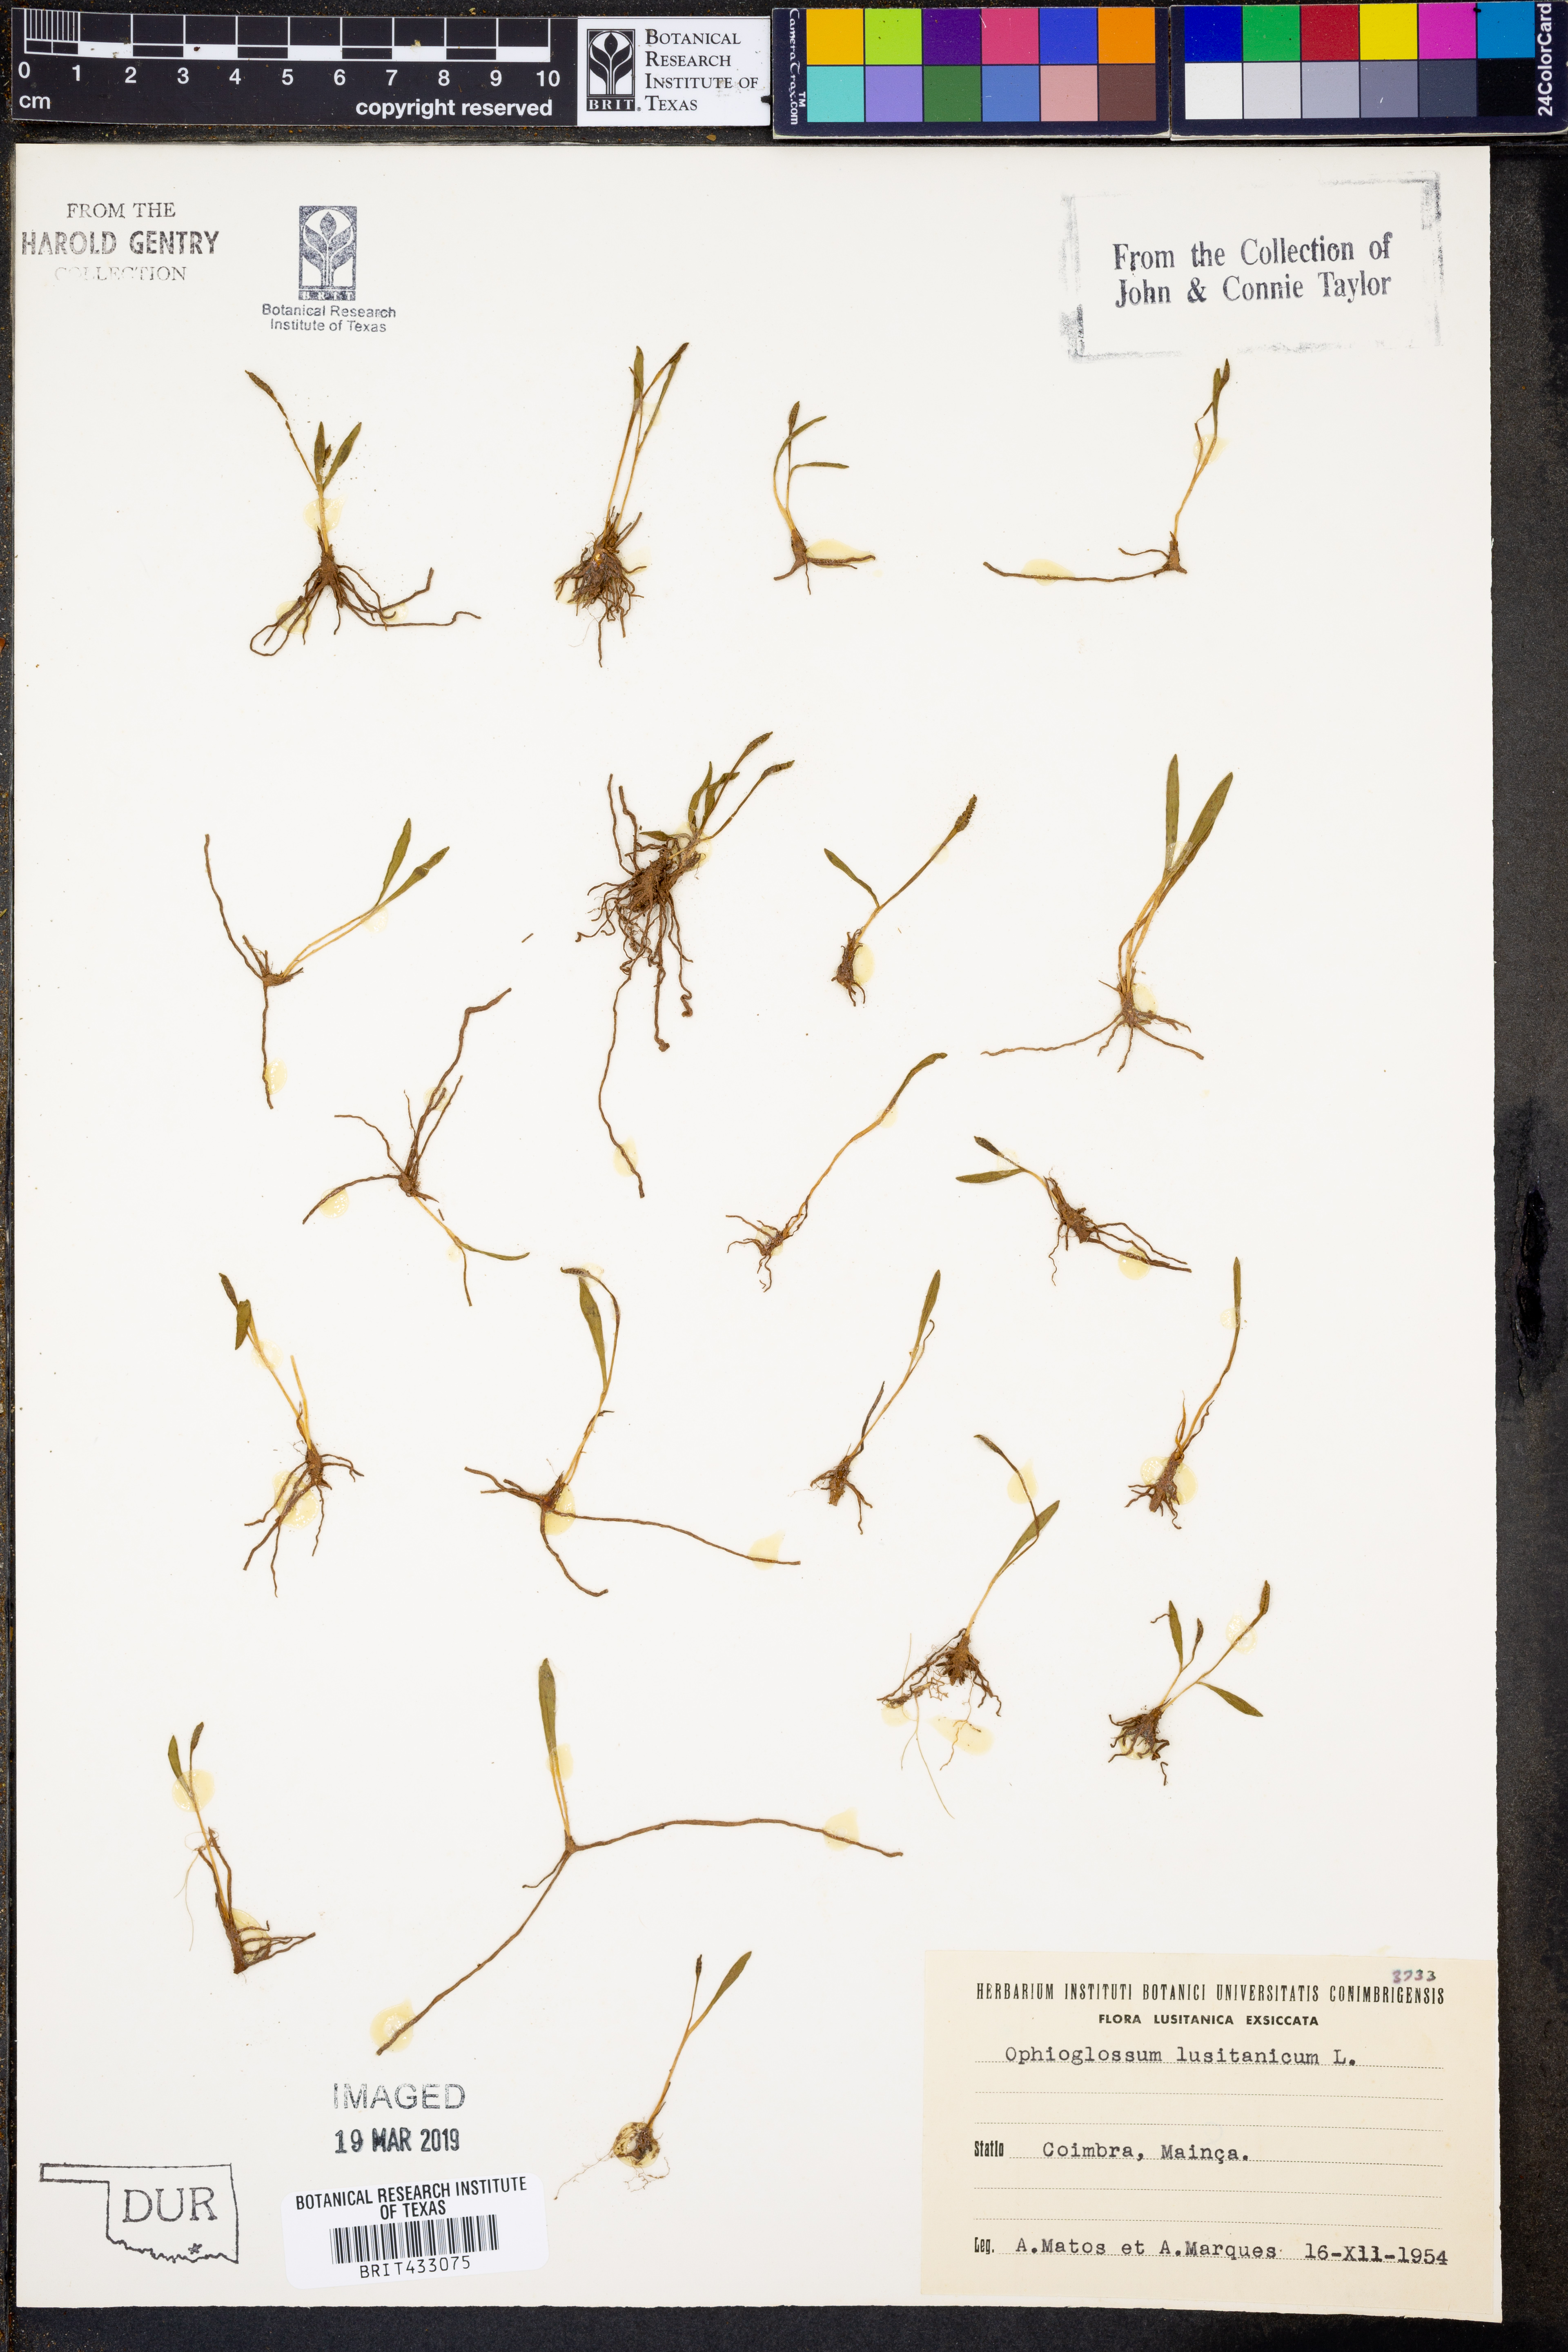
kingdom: Plantae
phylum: Tracheophyta
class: Polypodiopsida
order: Ophioglossales
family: Ophioglossaceae
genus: Ophioglossum
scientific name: Ophioglossum lusitanicum
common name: Least adder's-tongue
